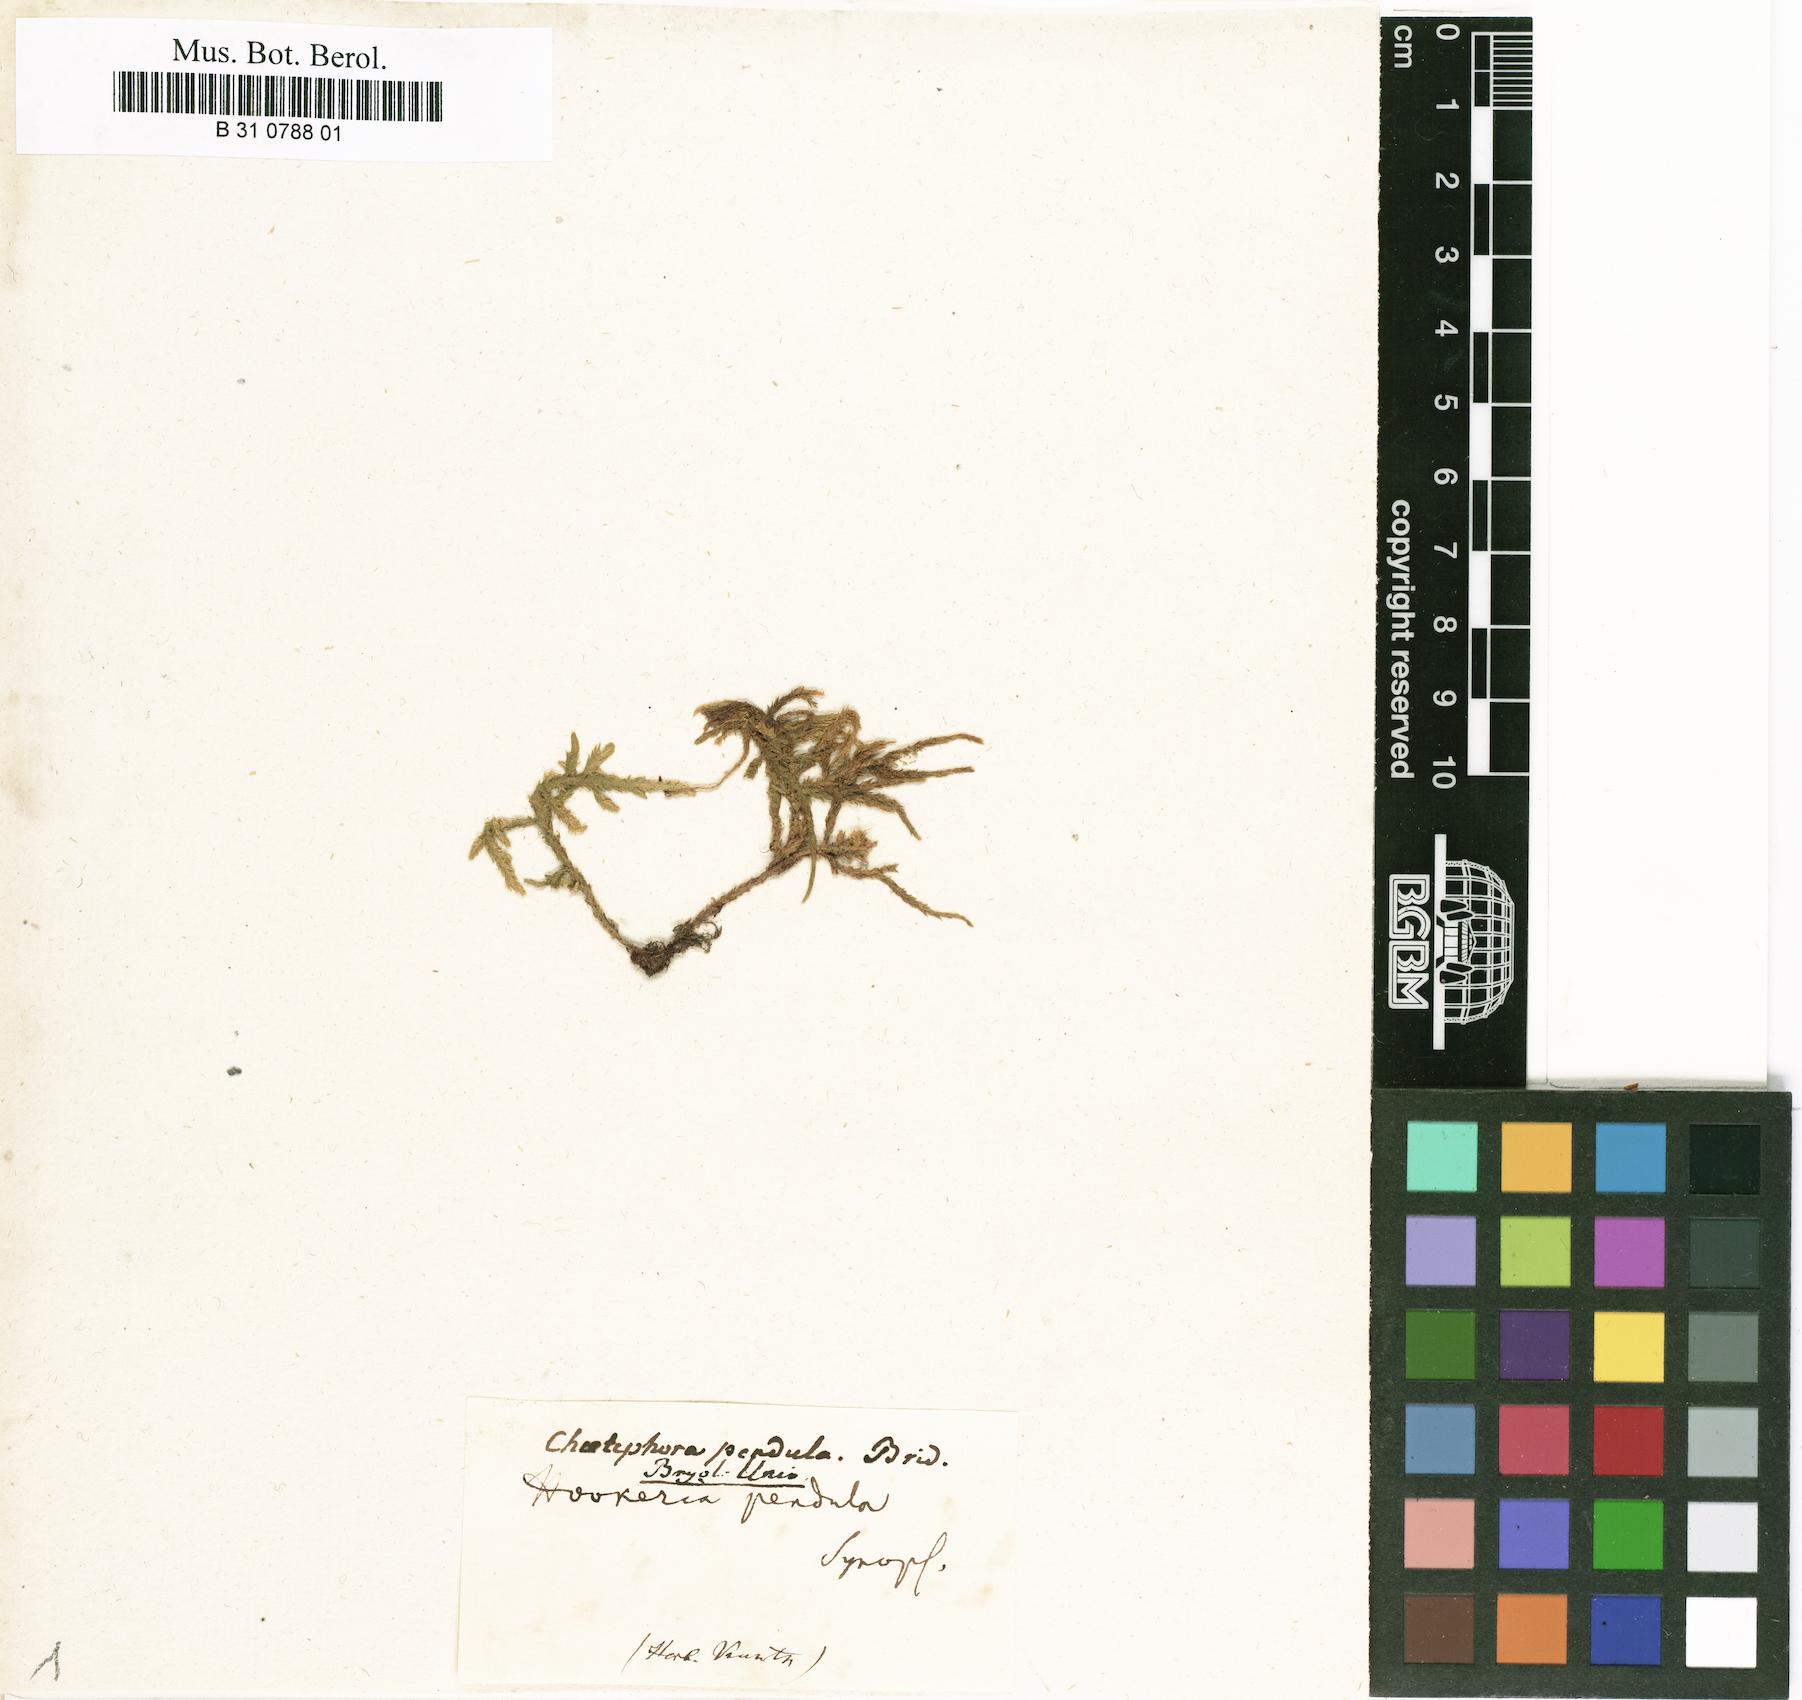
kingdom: Plantae
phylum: Bryophyta
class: Bryopsida
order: Hookeriales
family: Pilotrichaceae
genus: Thamniopsis
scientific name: Thamniopsis pendula
